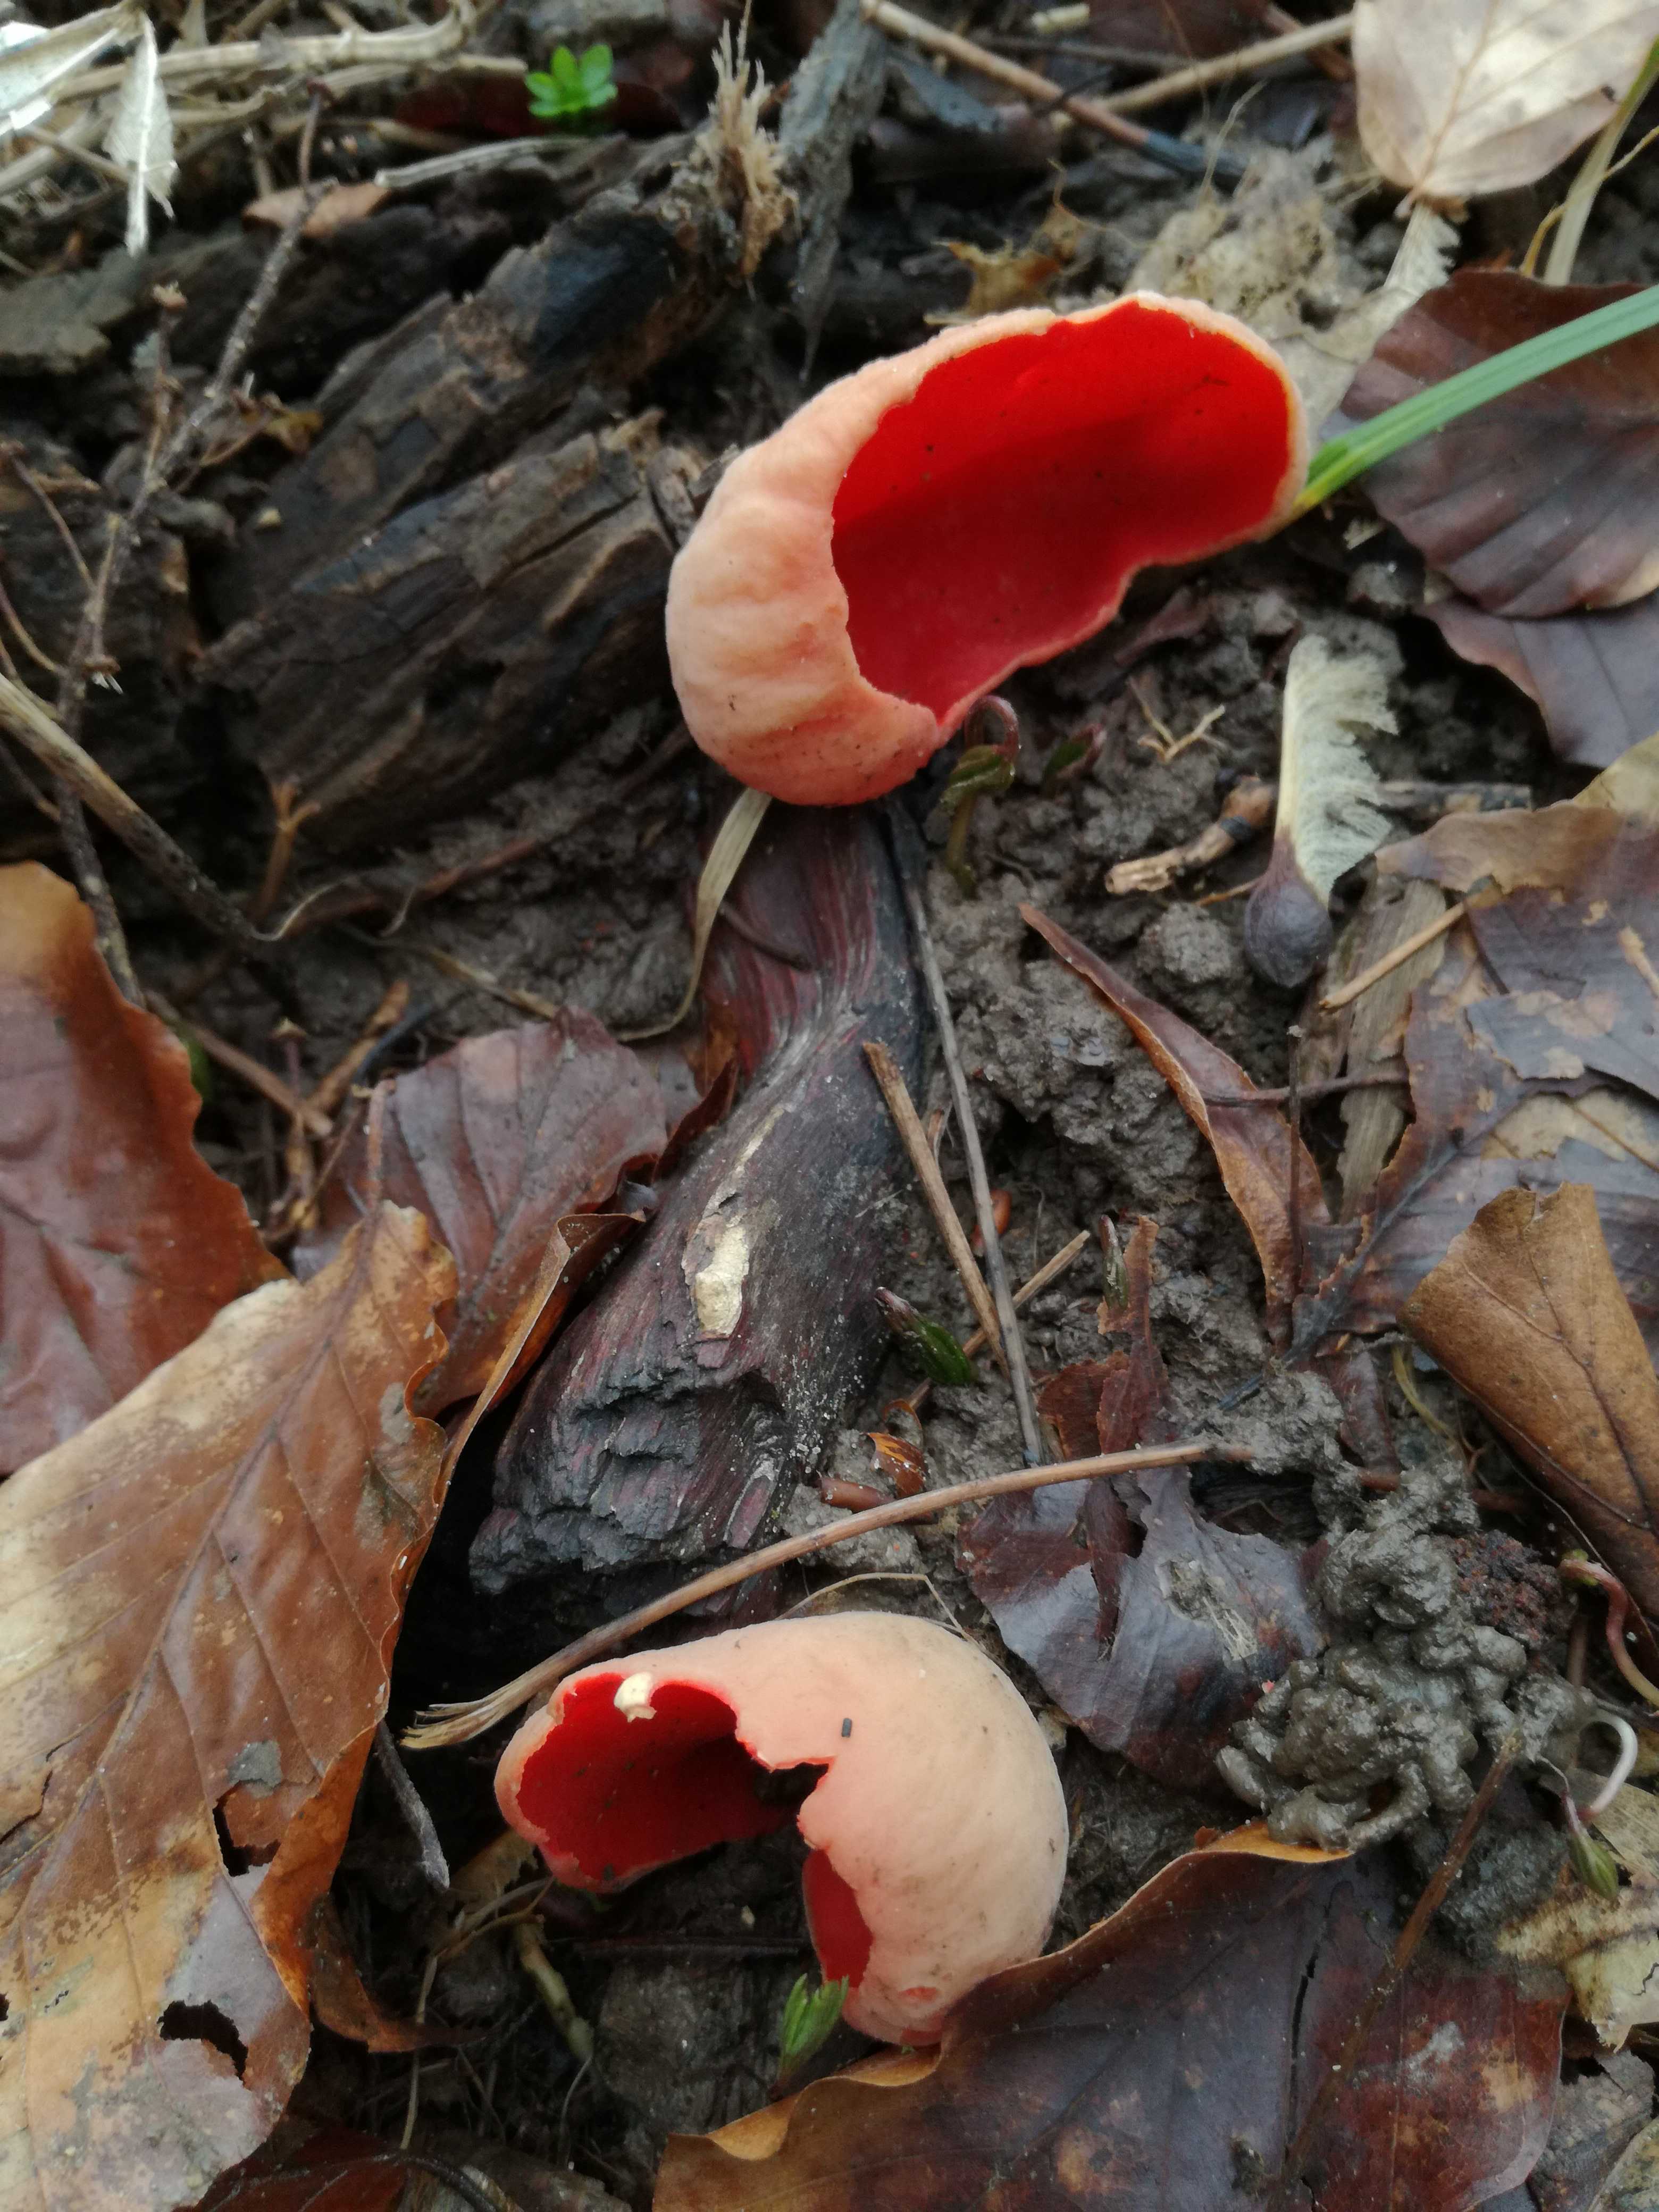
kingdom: Fungi
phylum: Ascomycota
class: Pezizomycetes
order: Pezizales
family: Sarcoscyphaceae
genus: Sarcoscypha
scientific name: Sarcoscypha austriaca
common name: krølhåret pragtbæger
